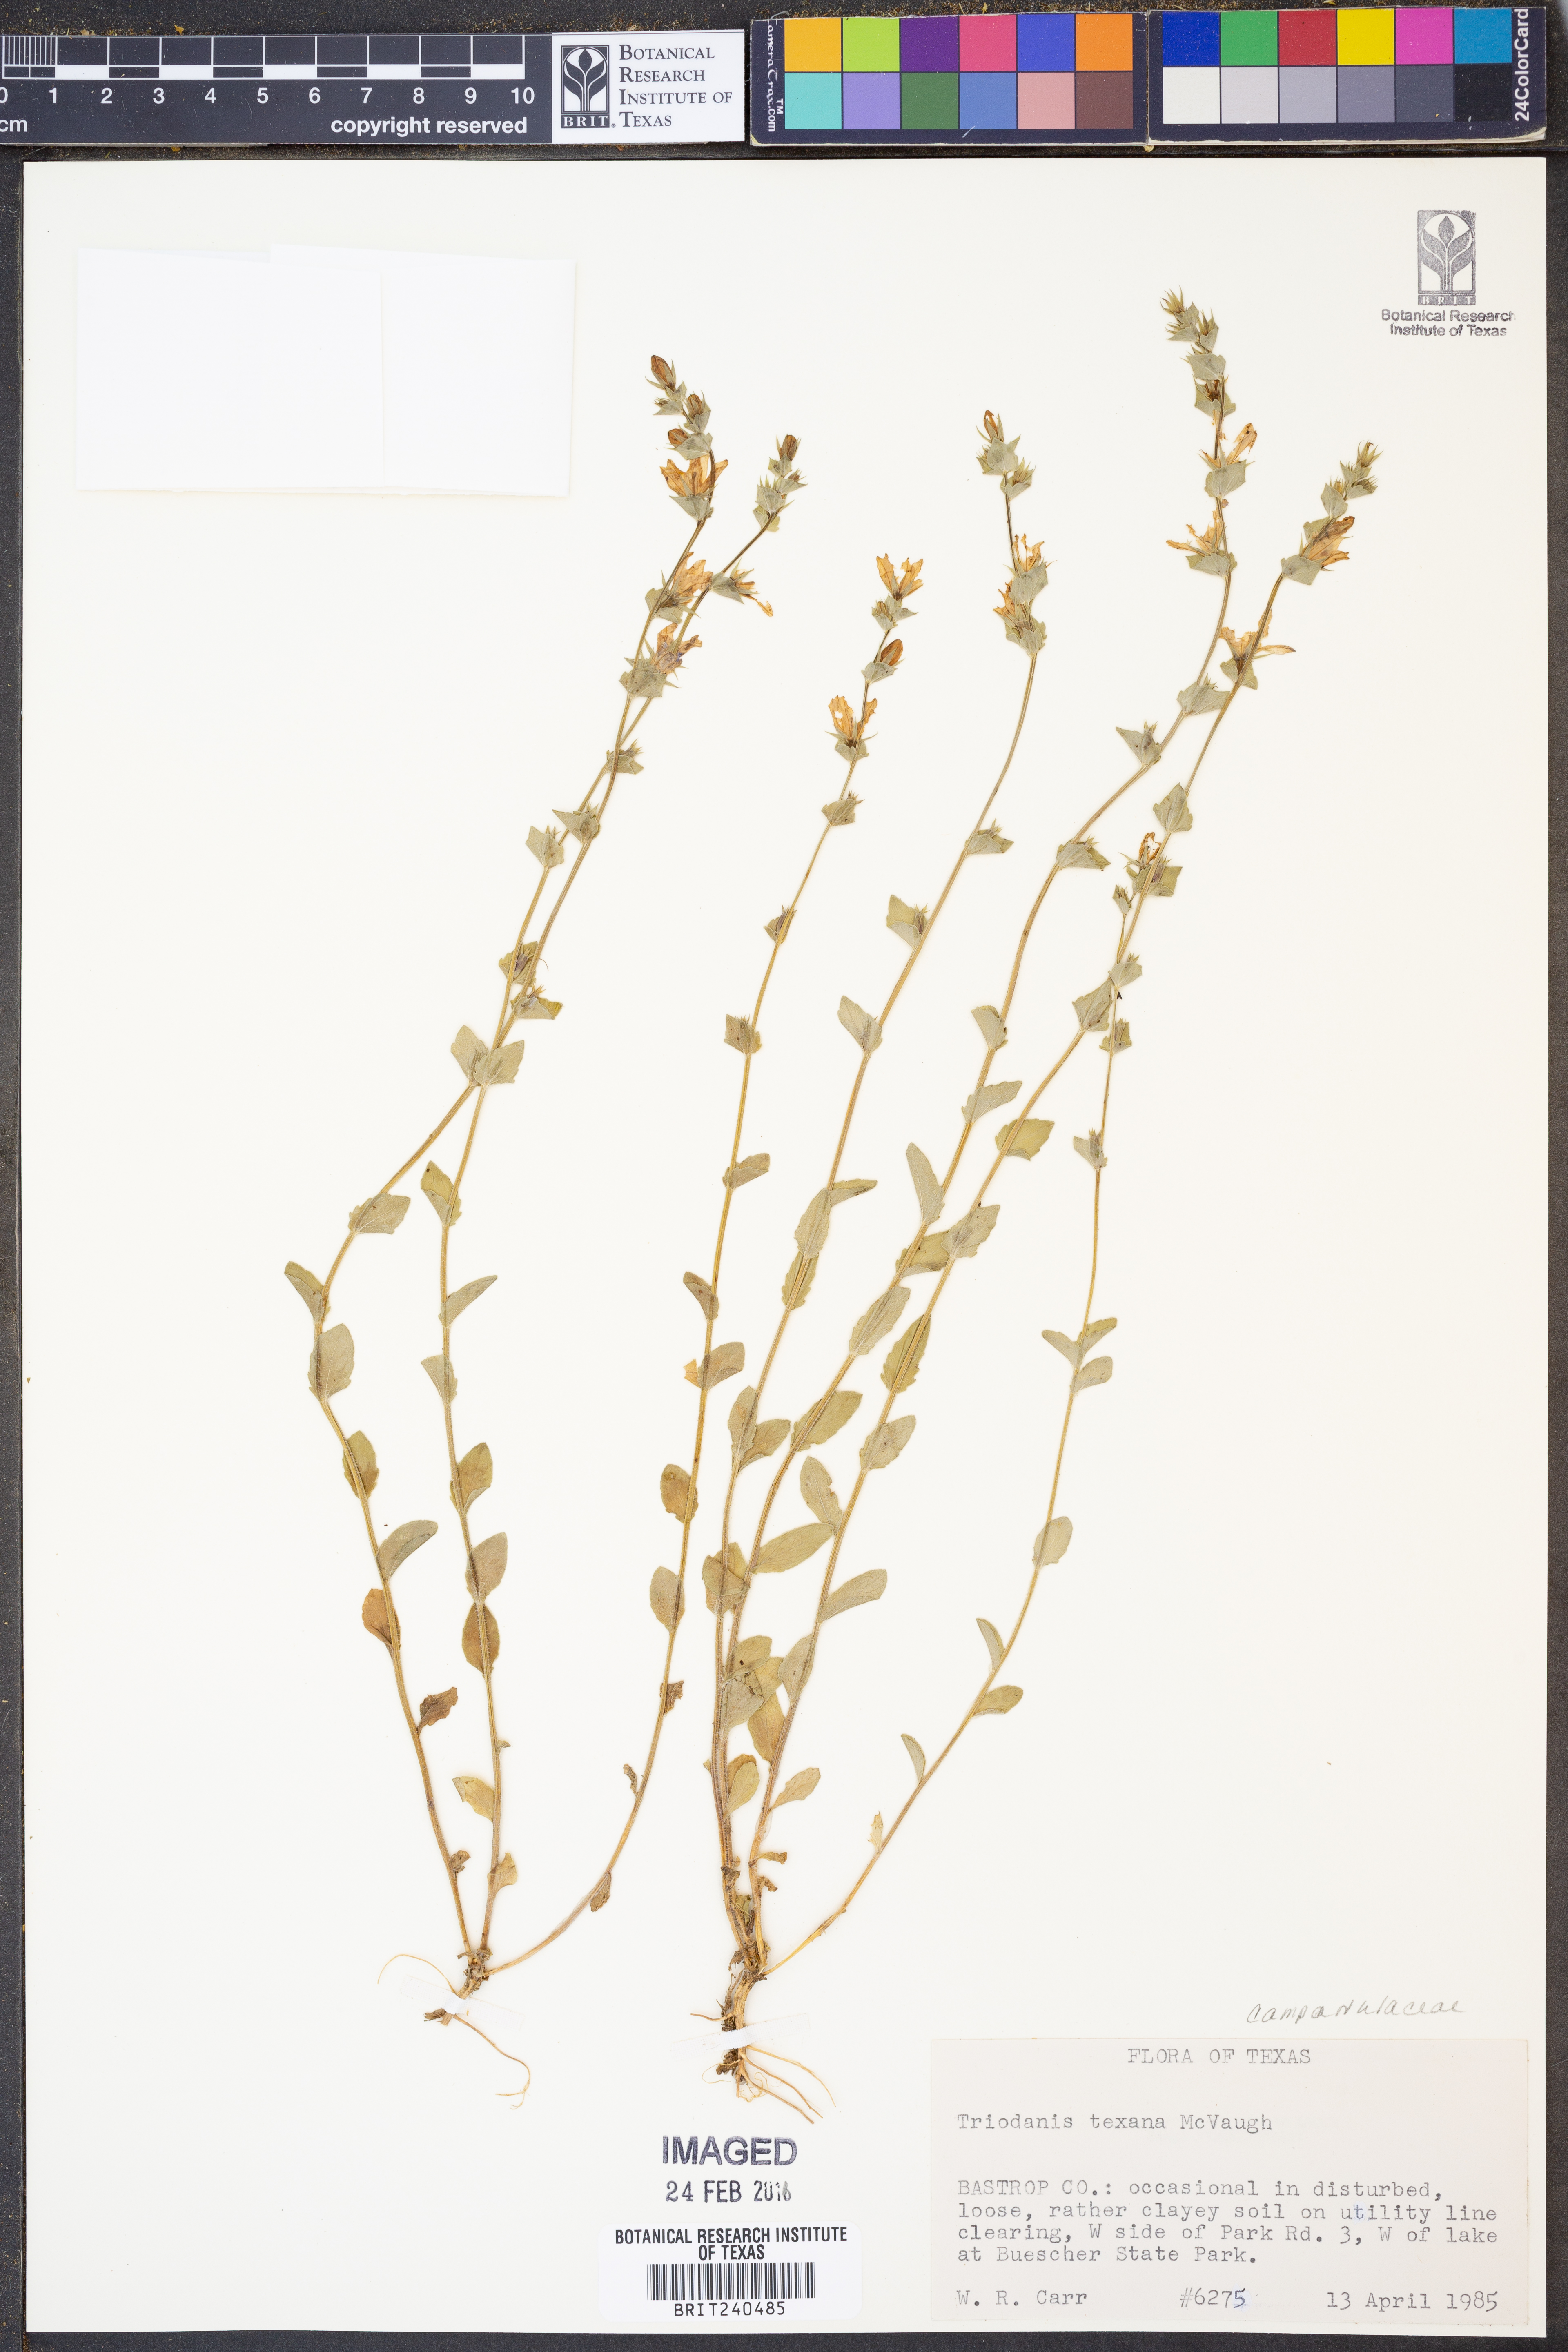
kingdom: Plantae
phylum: Tracheophyta
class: Magnoliopsida
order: Asterales
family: Campanulaceae
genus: Triodanis
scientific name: Triodanis texana
